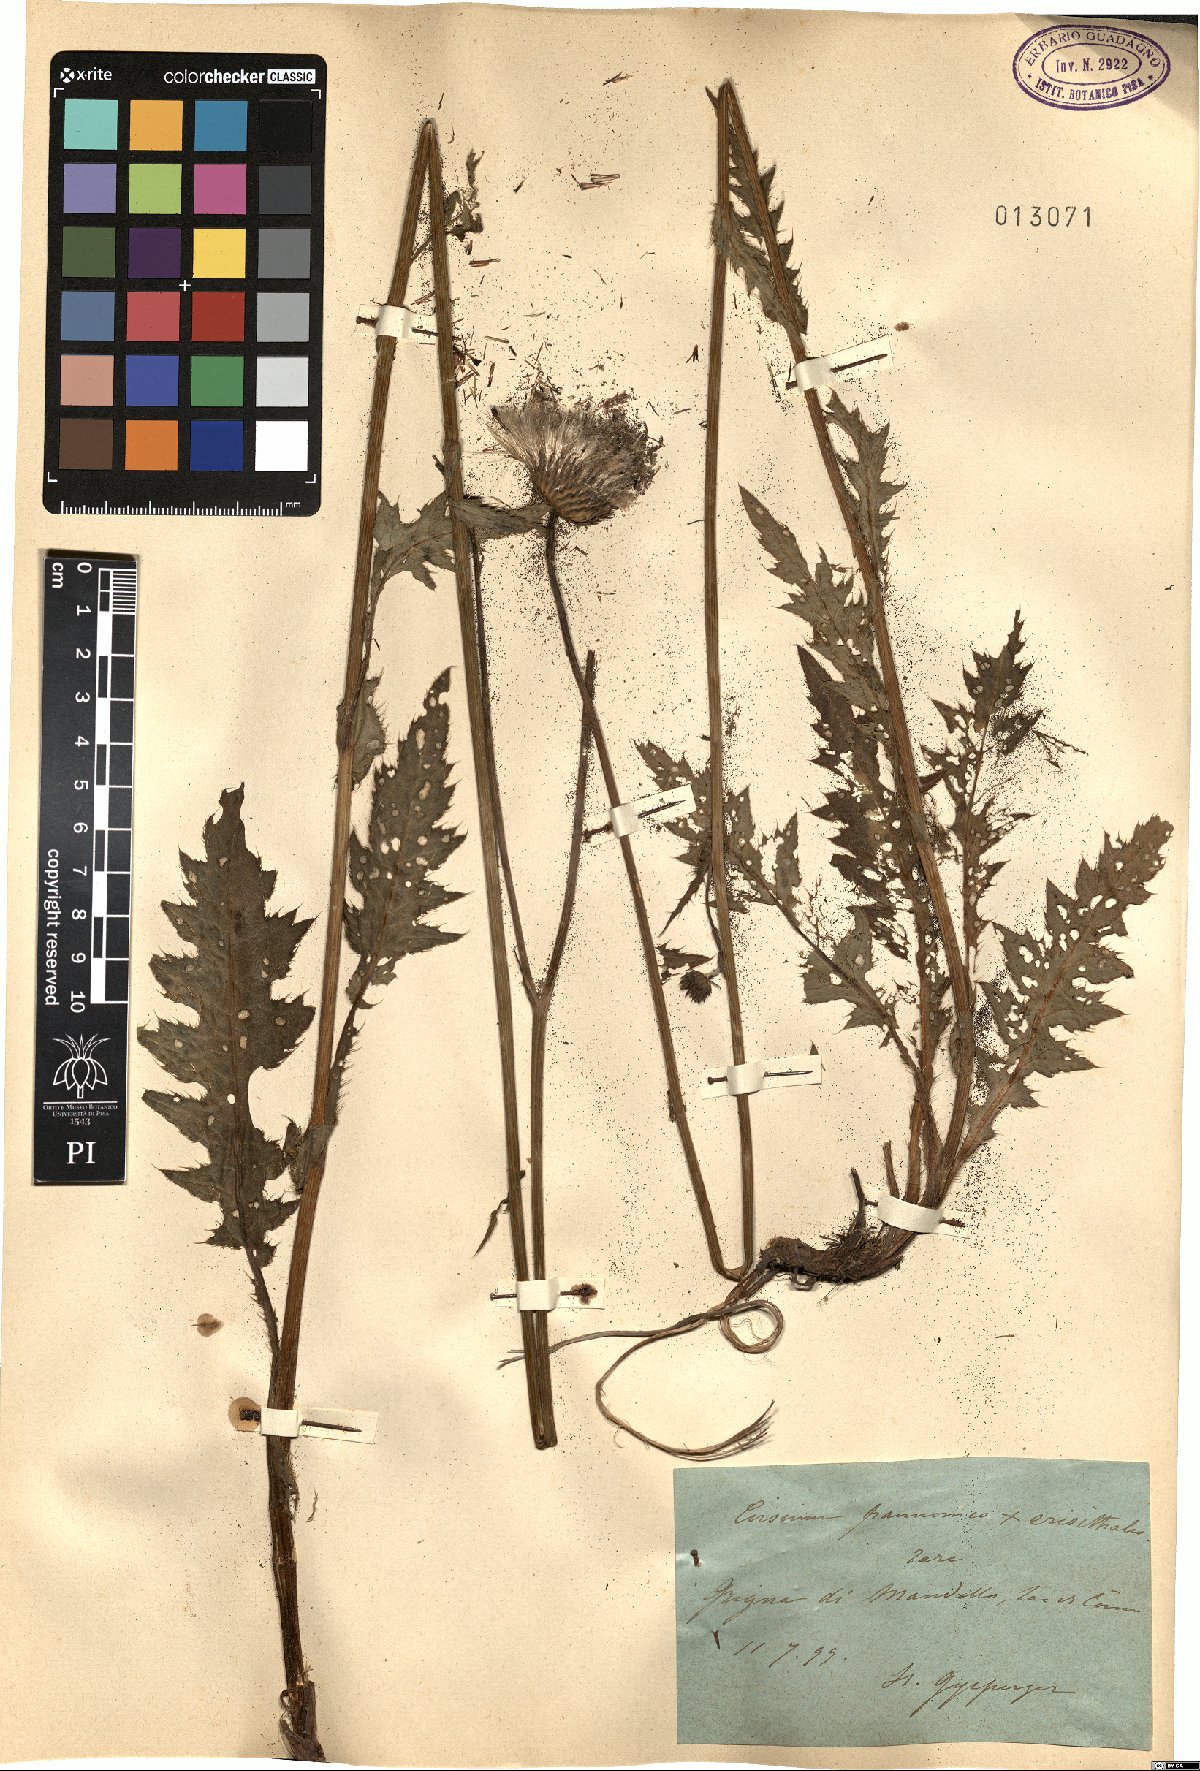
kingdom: Plantae
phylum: Tracheophyta
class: Magnoliopsida
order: Asterales
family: Asteraceae
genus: Cirsium
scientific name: Cirsium pannonicum
